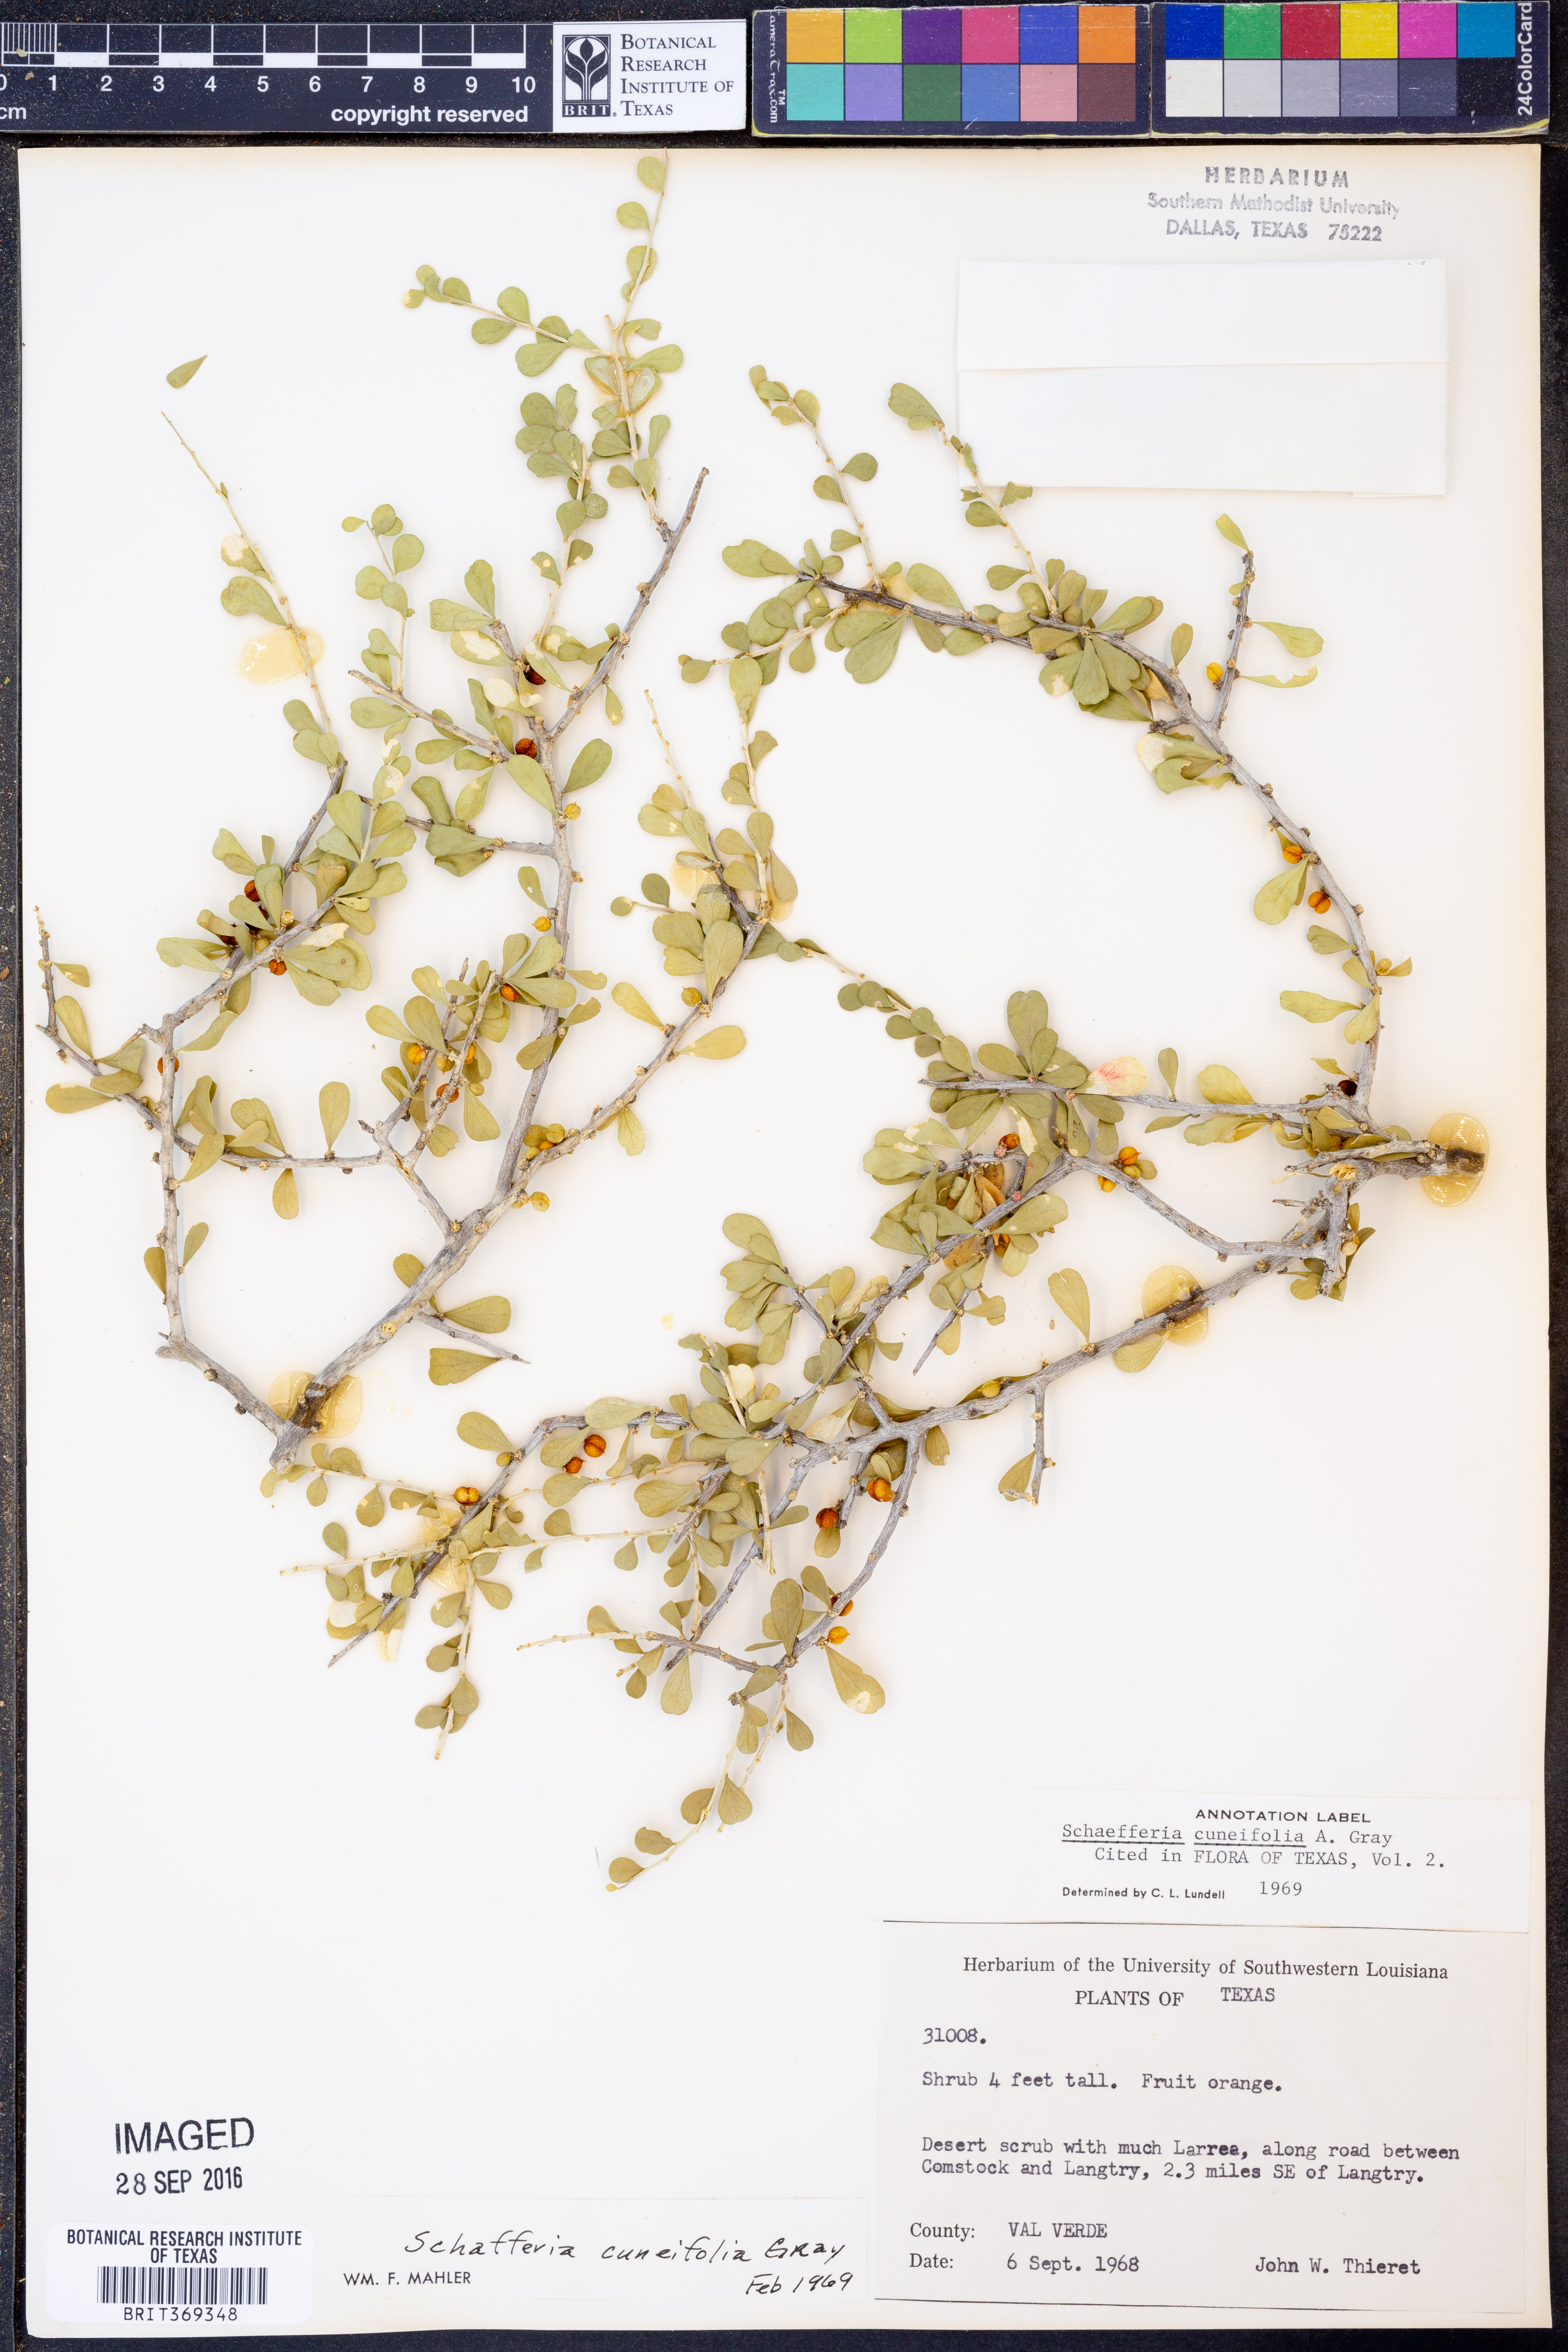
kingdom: Plantae
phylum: Tracheophyta
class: Magnoliopsida
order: Celastrales
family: Celastraceae
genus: Schaefferia
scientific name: Schaefferia cuneifolia
